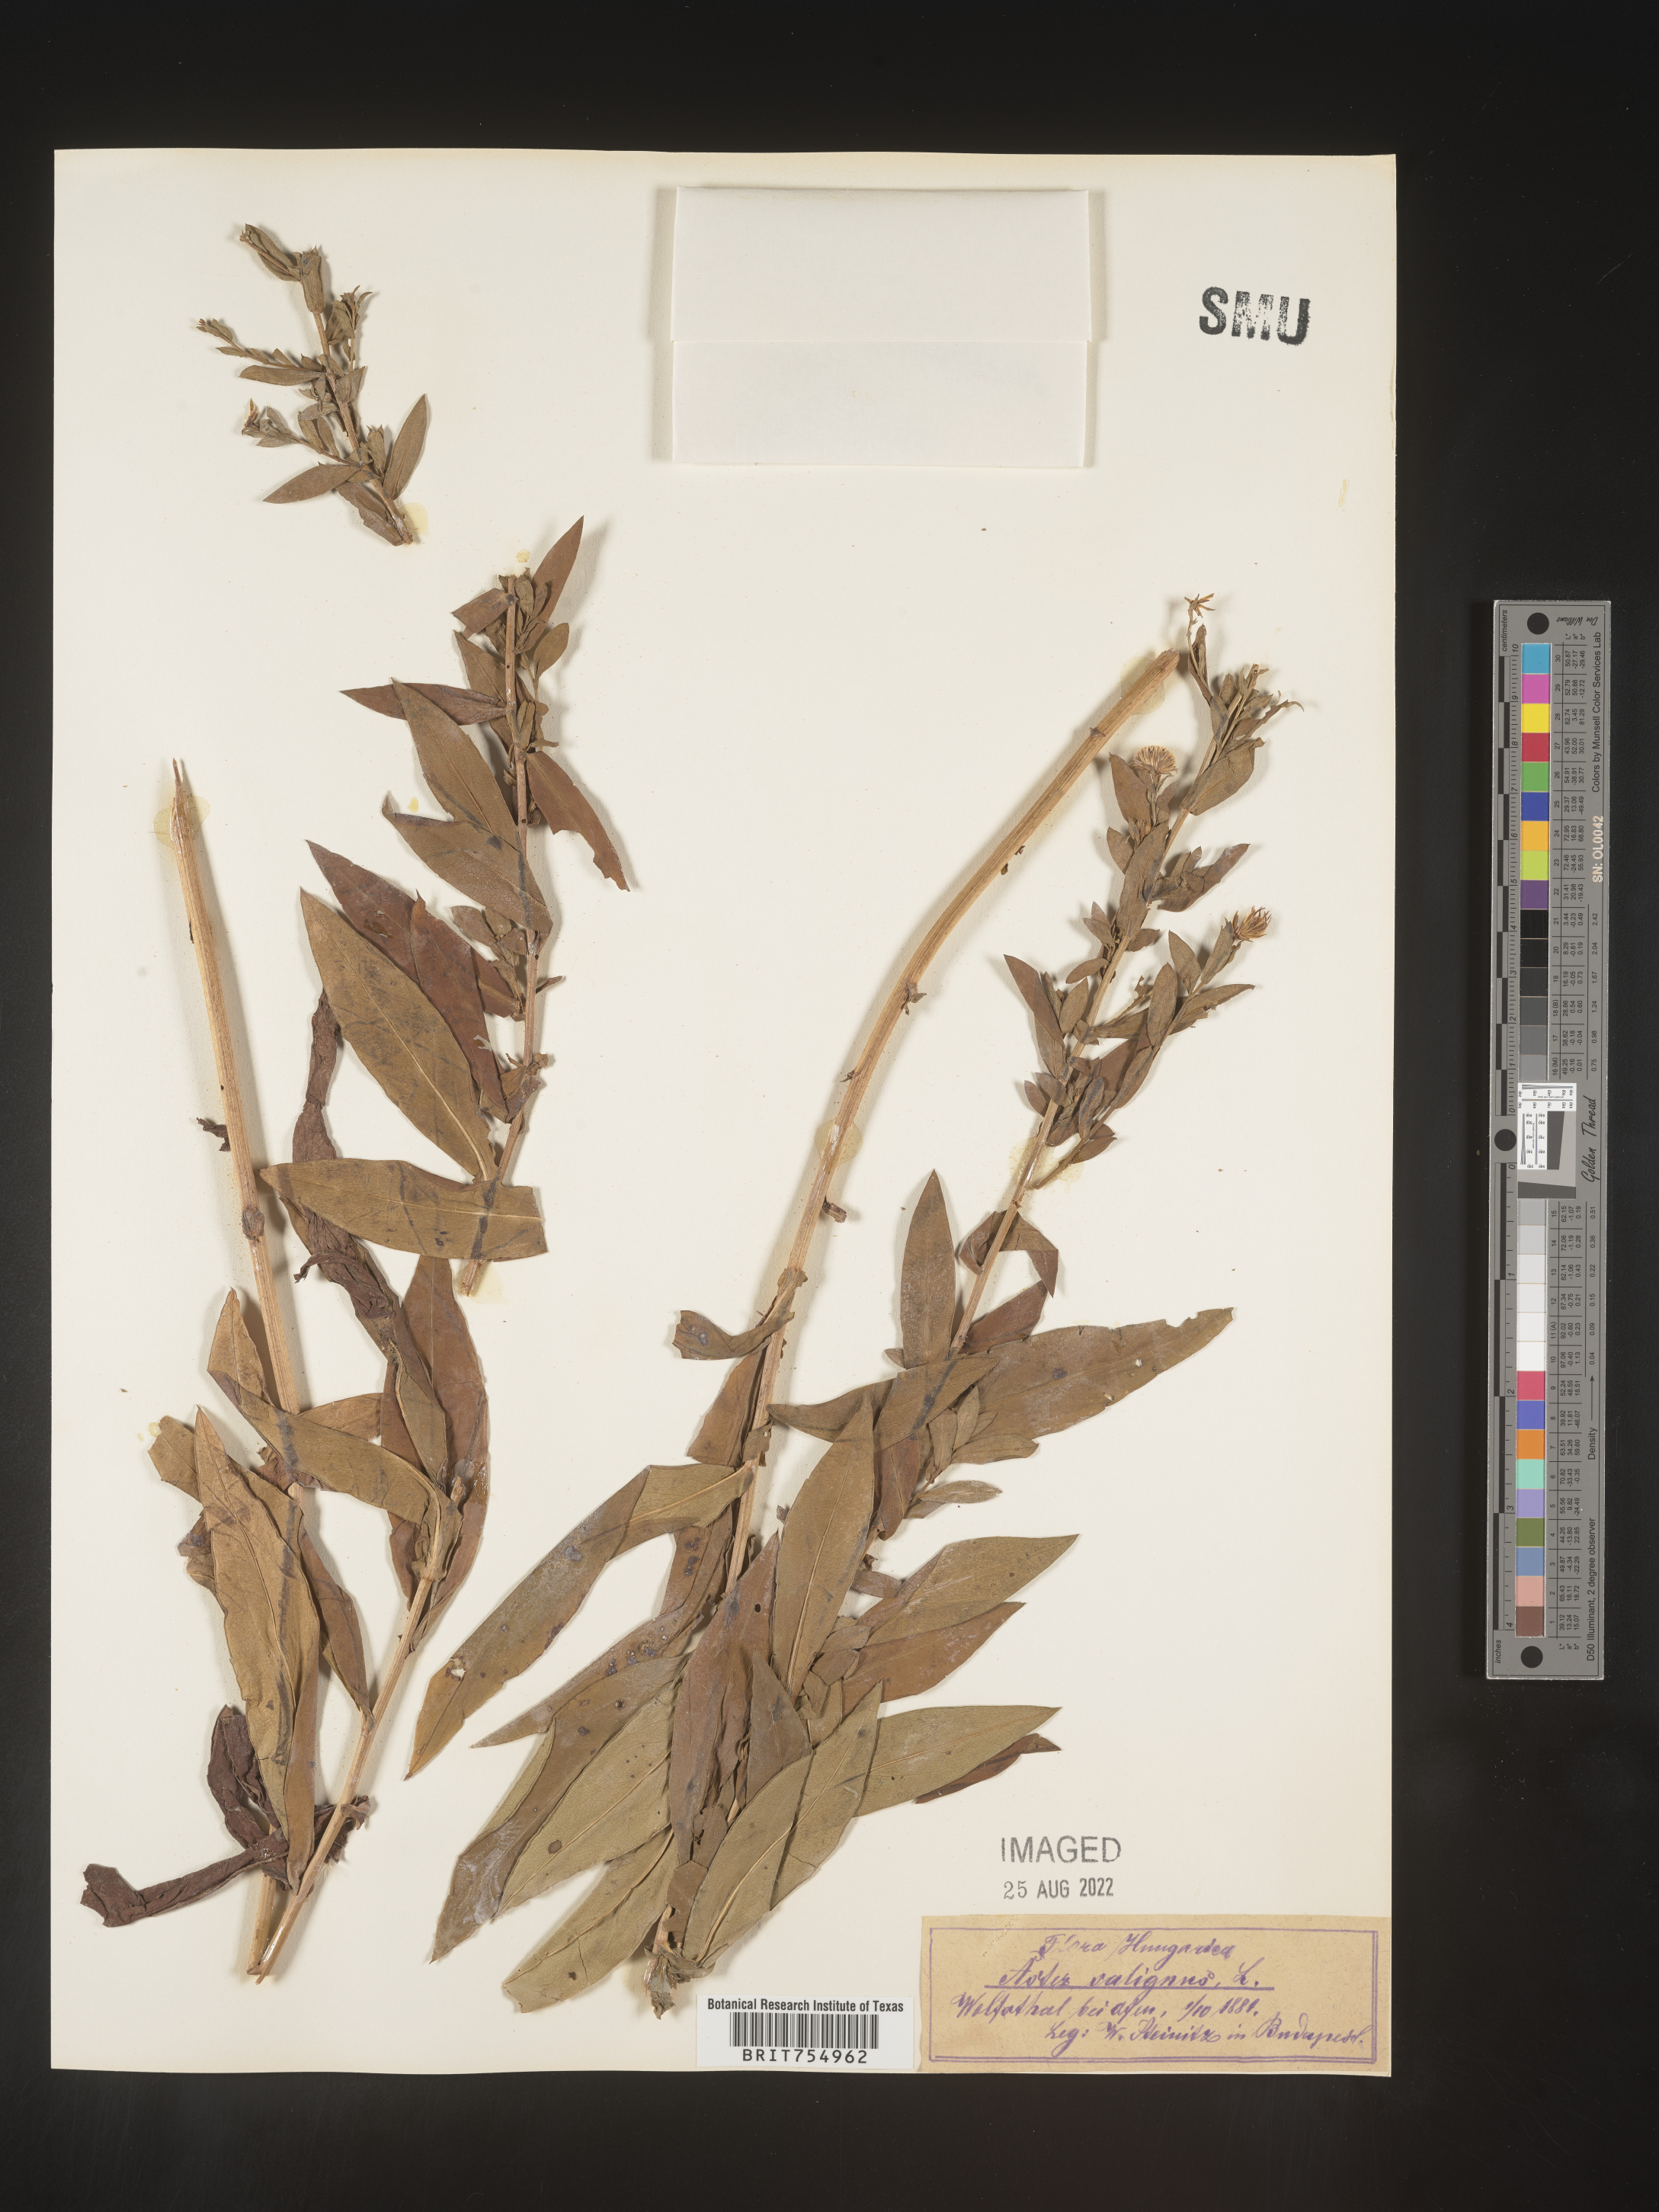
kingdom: Plantae
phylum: Tracheophyta
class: Magnoliopsida
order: Asterales
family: Asteraceae
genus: Symphyotrichum
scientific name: Symphyotrichum
